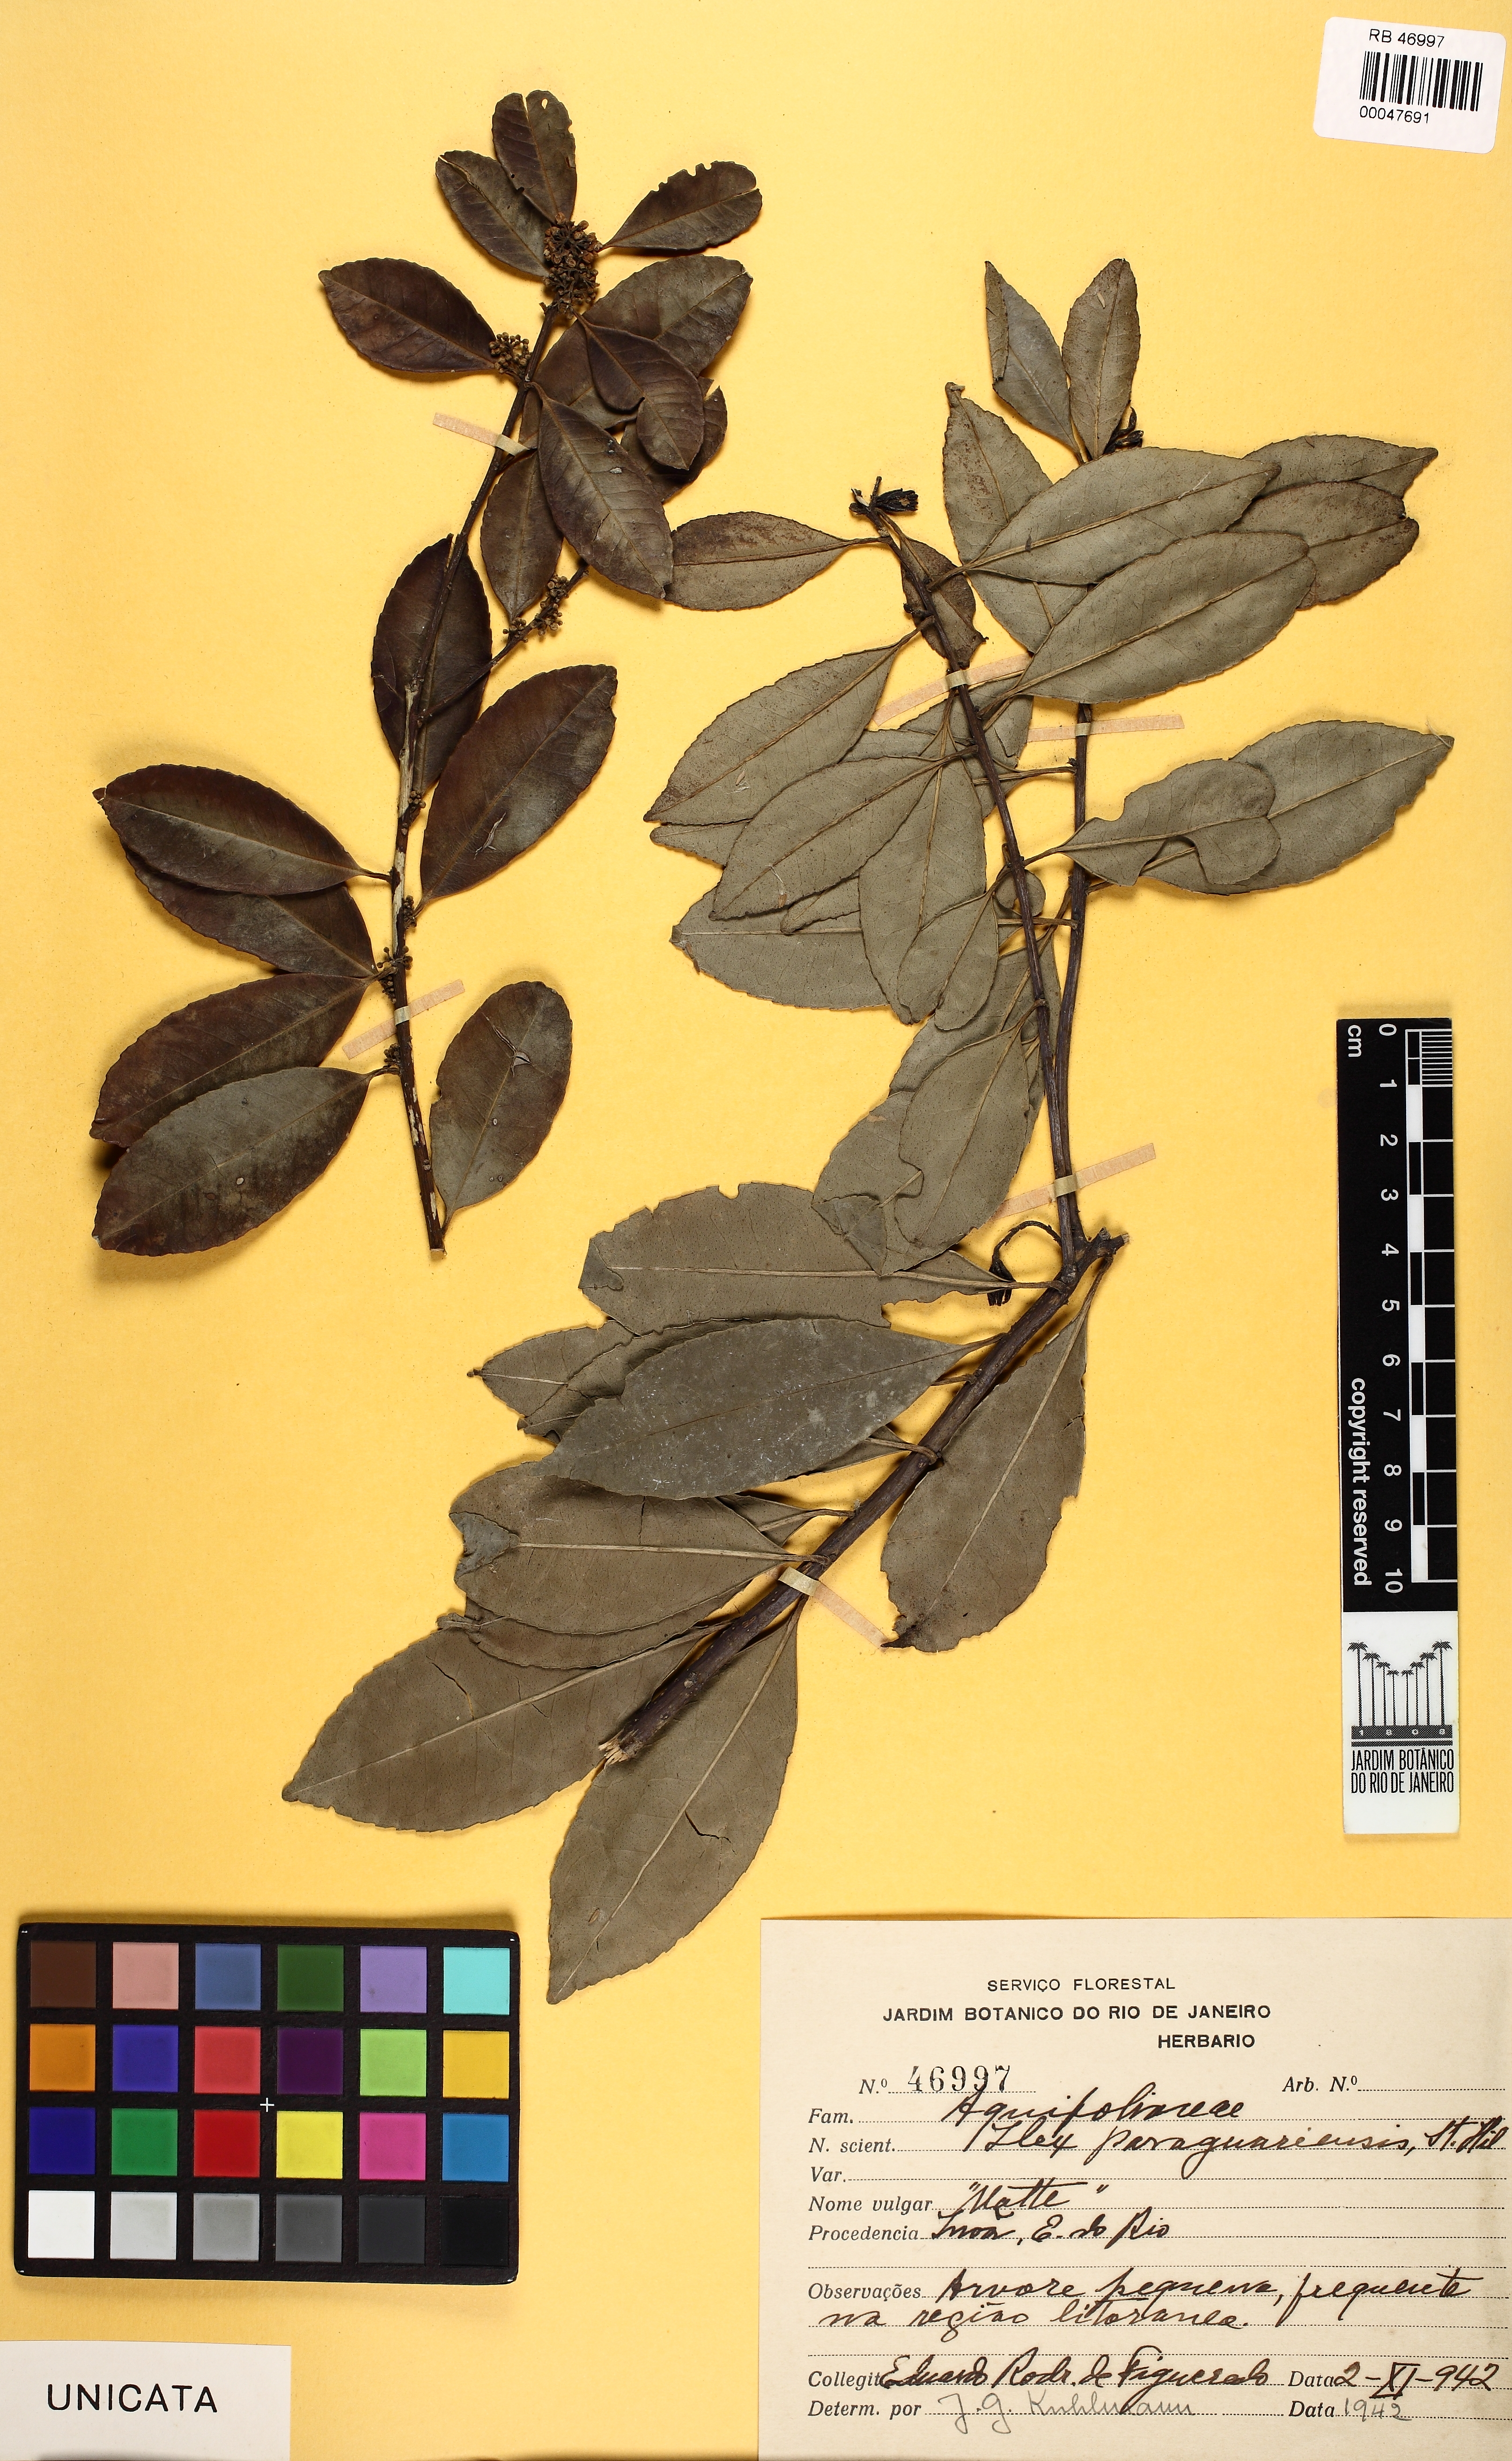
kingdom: Plantae
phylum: Tracheophyta
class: Magnoliopsida
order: Aquifoliales
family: Aquifoliaceae
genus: Ilex
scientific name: Ilex paraguariensis
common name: Paraguay tea
